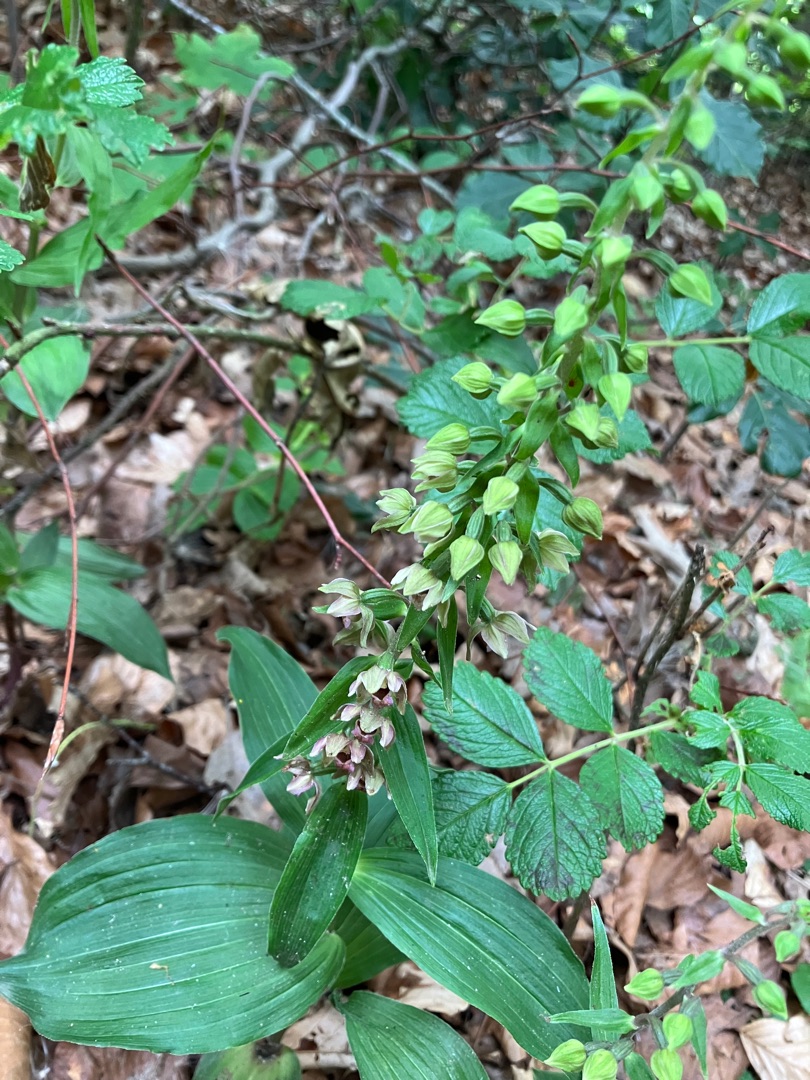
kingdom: Plantae
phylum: Tracheophyta
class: Liliopsida
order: Asparagales
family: Orchidaceae
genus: Epipactis
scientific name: Epipactis helleborine
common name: Skov-hullæbe
